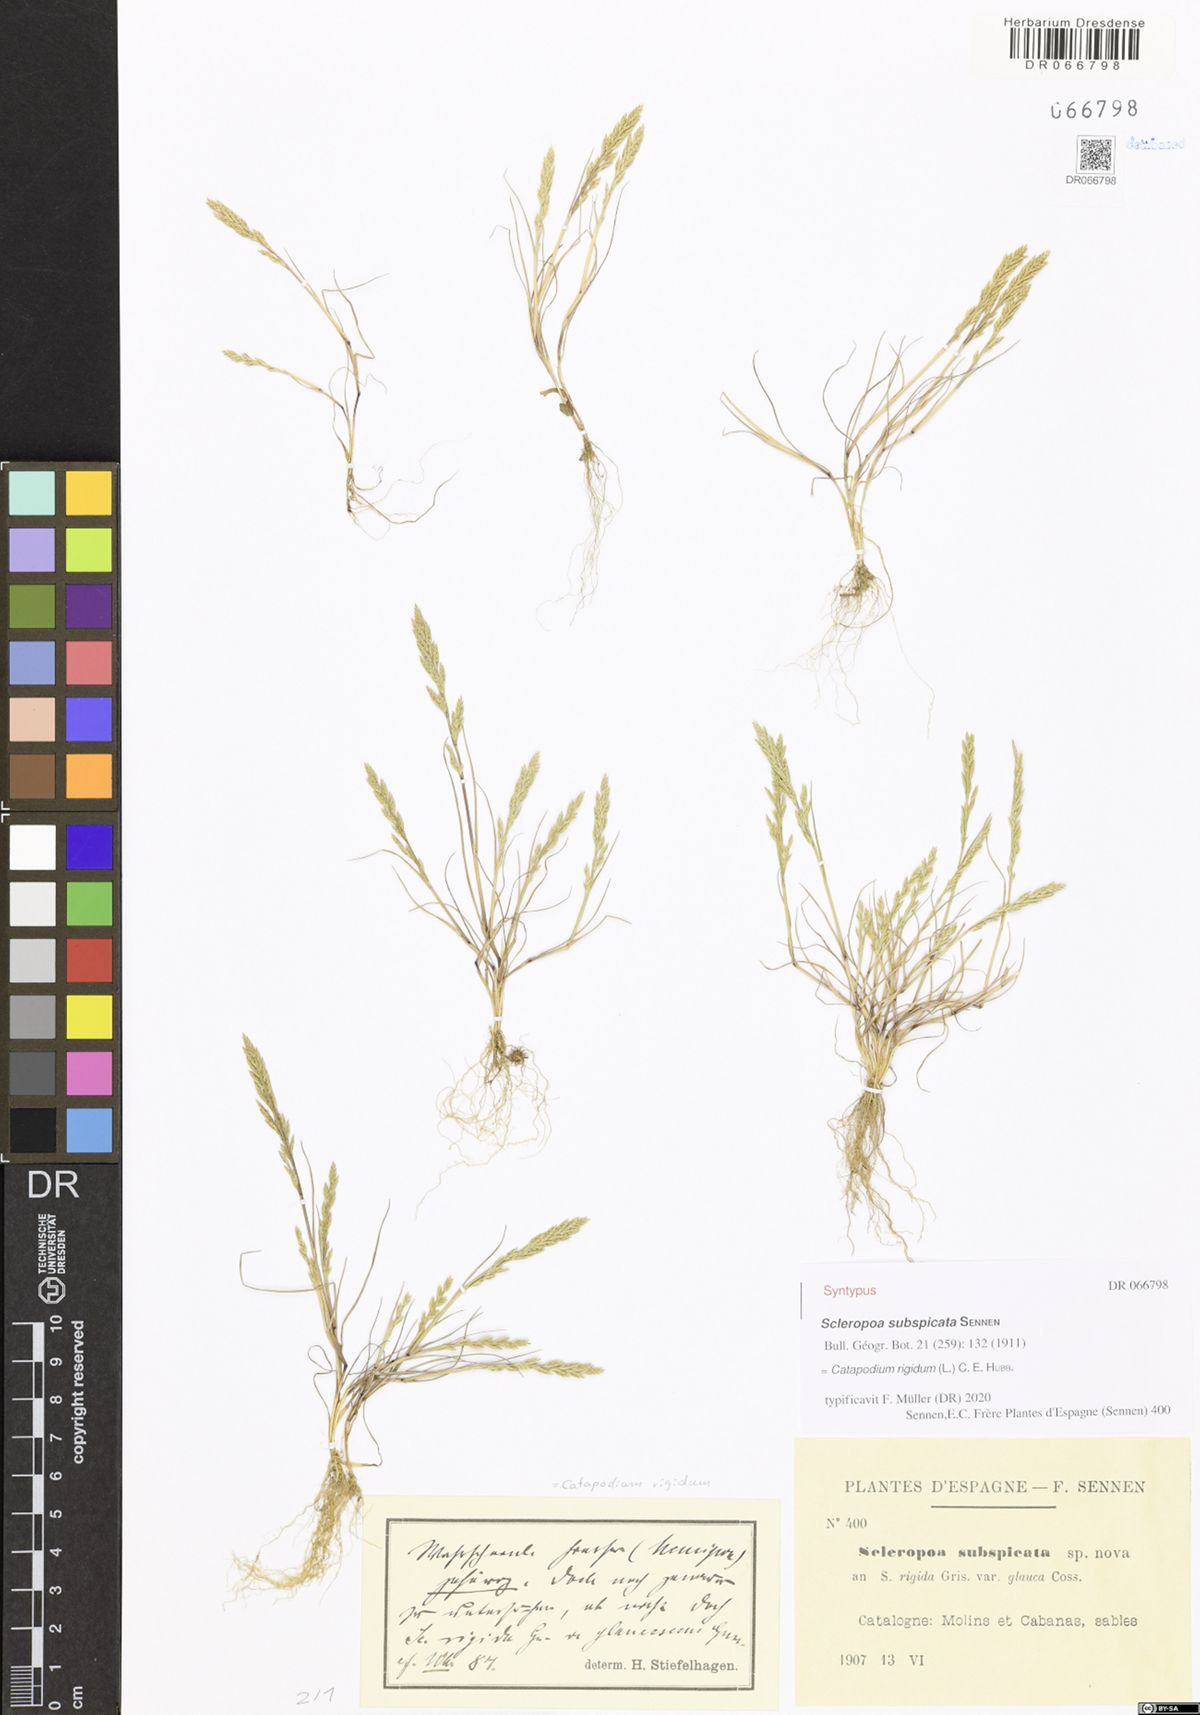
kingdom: Plantae
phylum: Tracheophyta
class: Liliopsida
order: Poales
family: Poaceae
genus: Catapodium
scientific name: Catapodium rigidum
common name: Fern-grass
